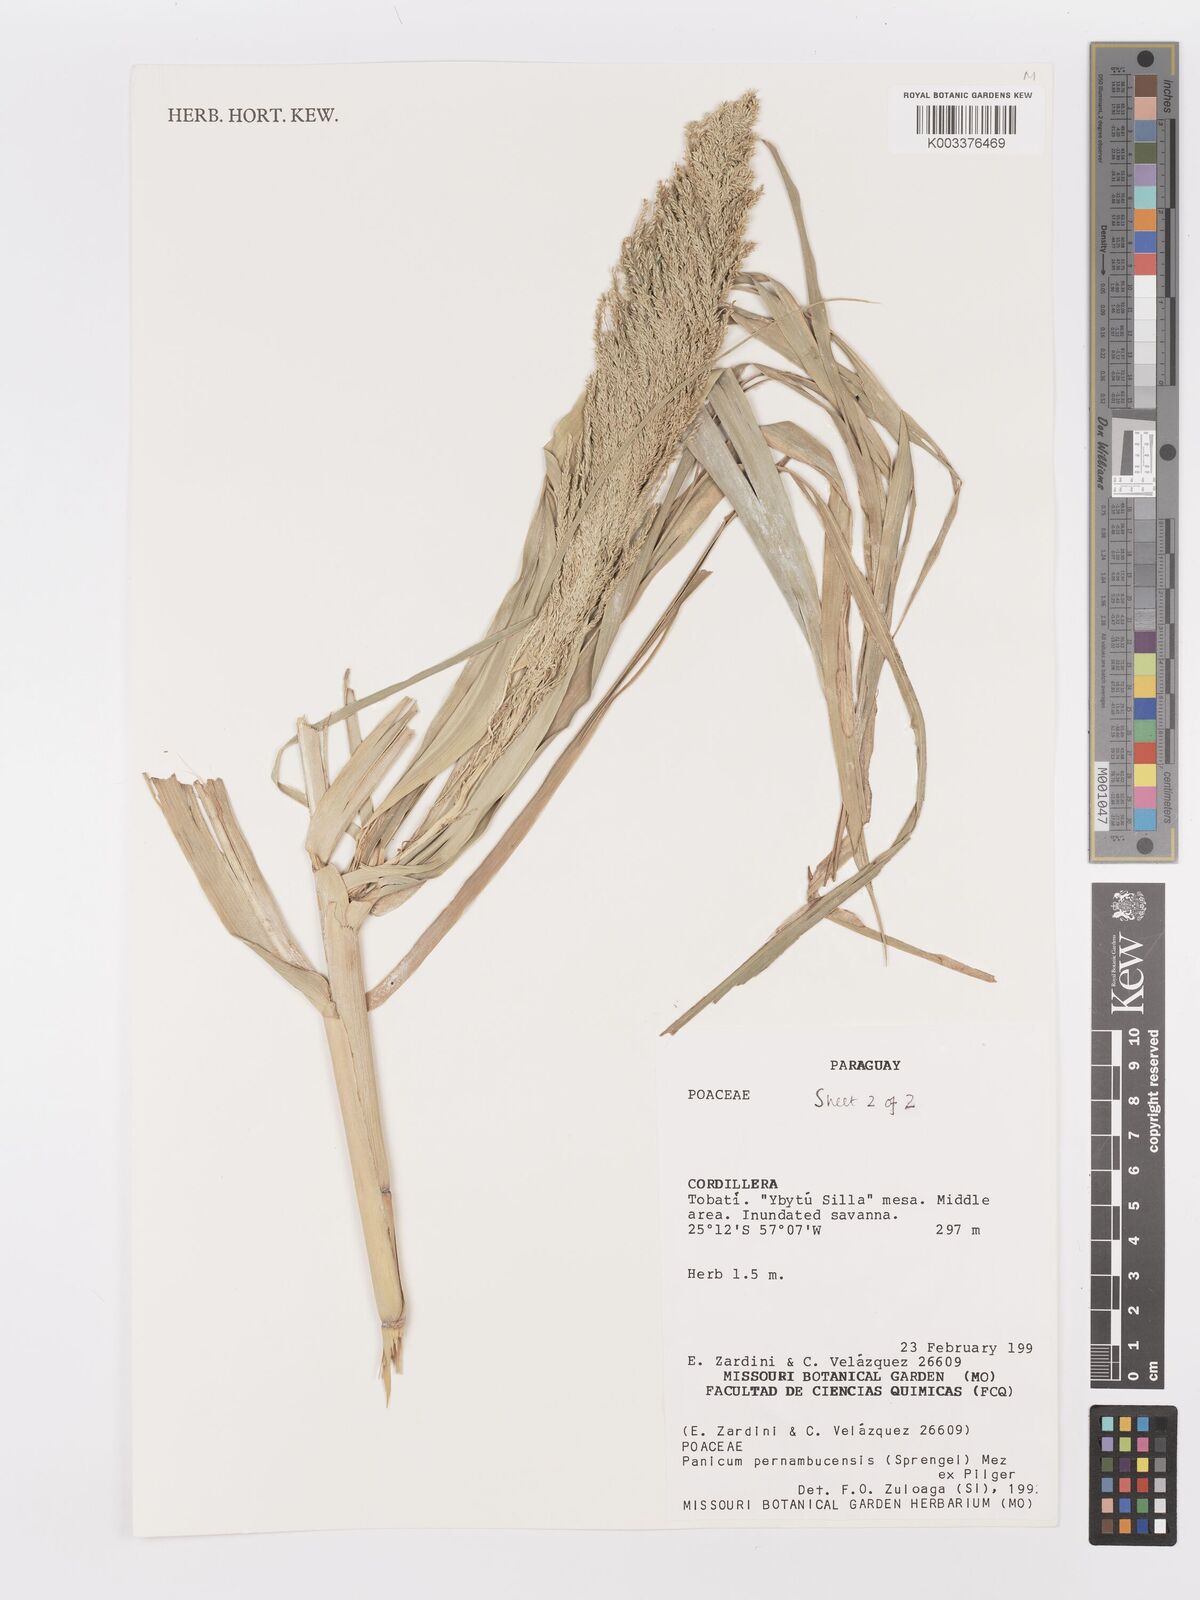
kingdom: Plantae
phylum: Tracheophyta
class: Liliopsida
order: Poales
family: Poaceae
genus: Hymenachne
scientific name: Hymenachne pernambucensis
